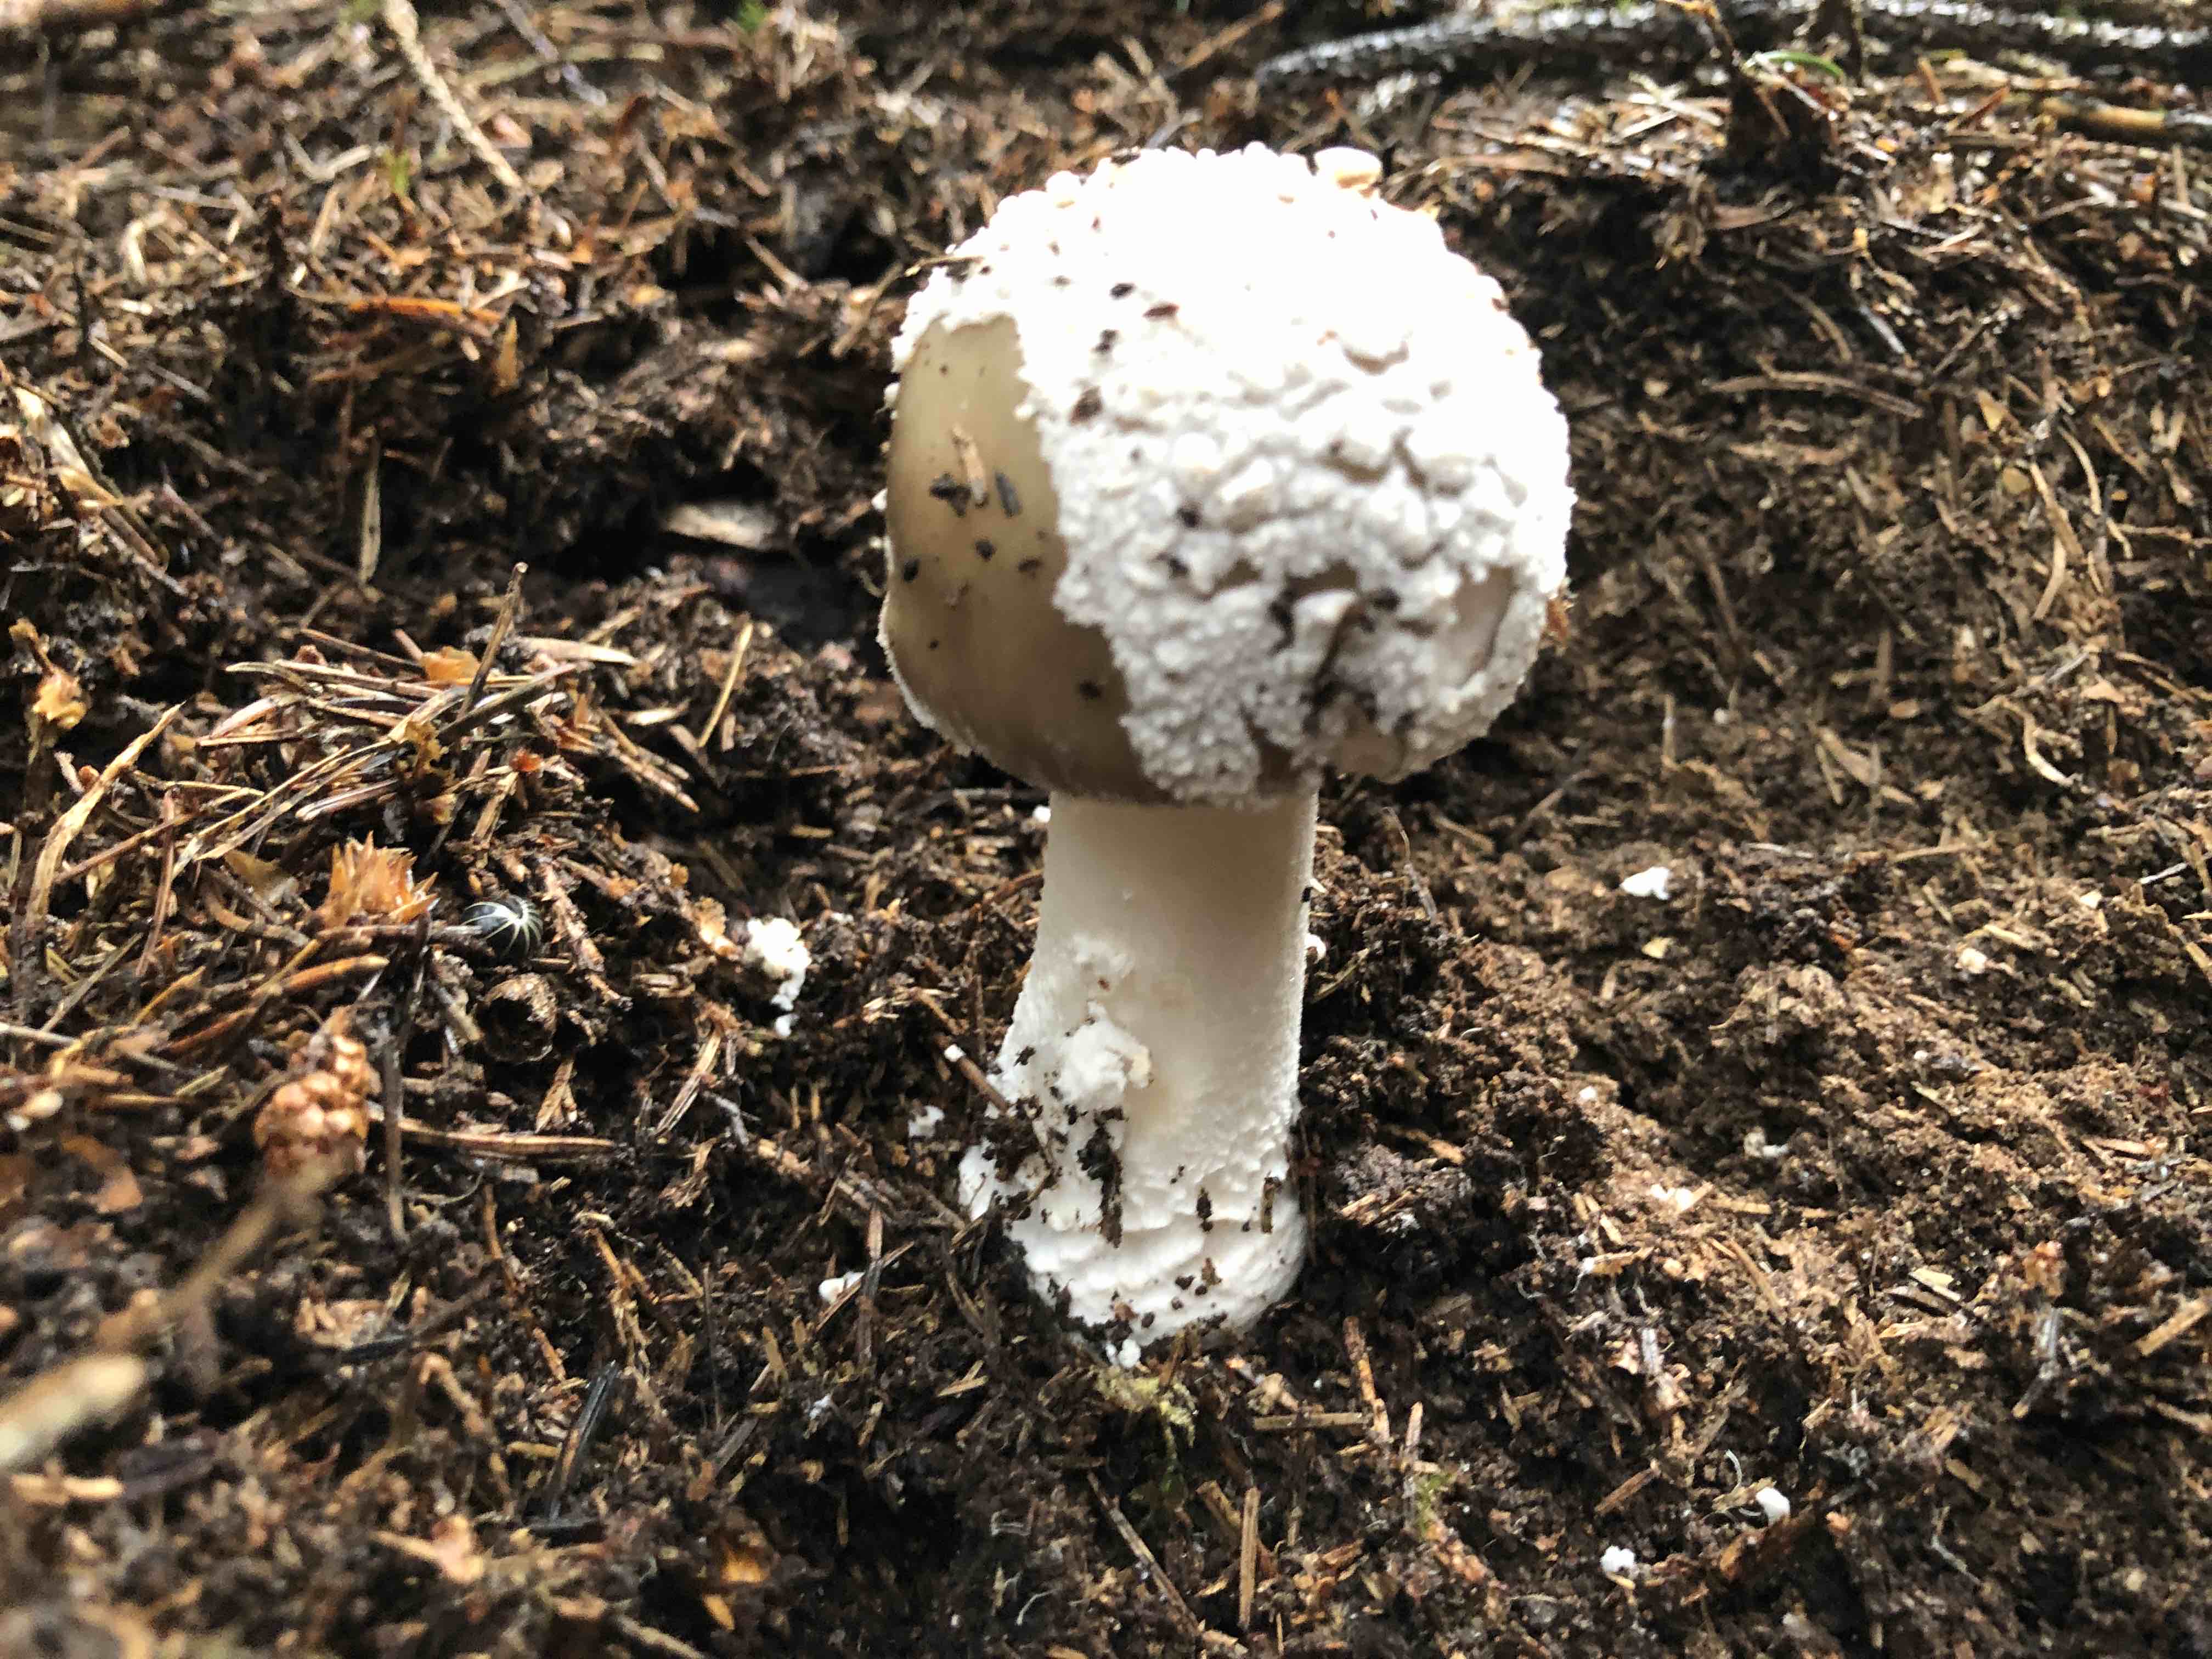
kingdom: Fungi
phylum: Basidiomycota
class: Agaricomycetes
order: Agaricales
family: Amanitaceae
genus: Amanita
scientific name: Amanita
